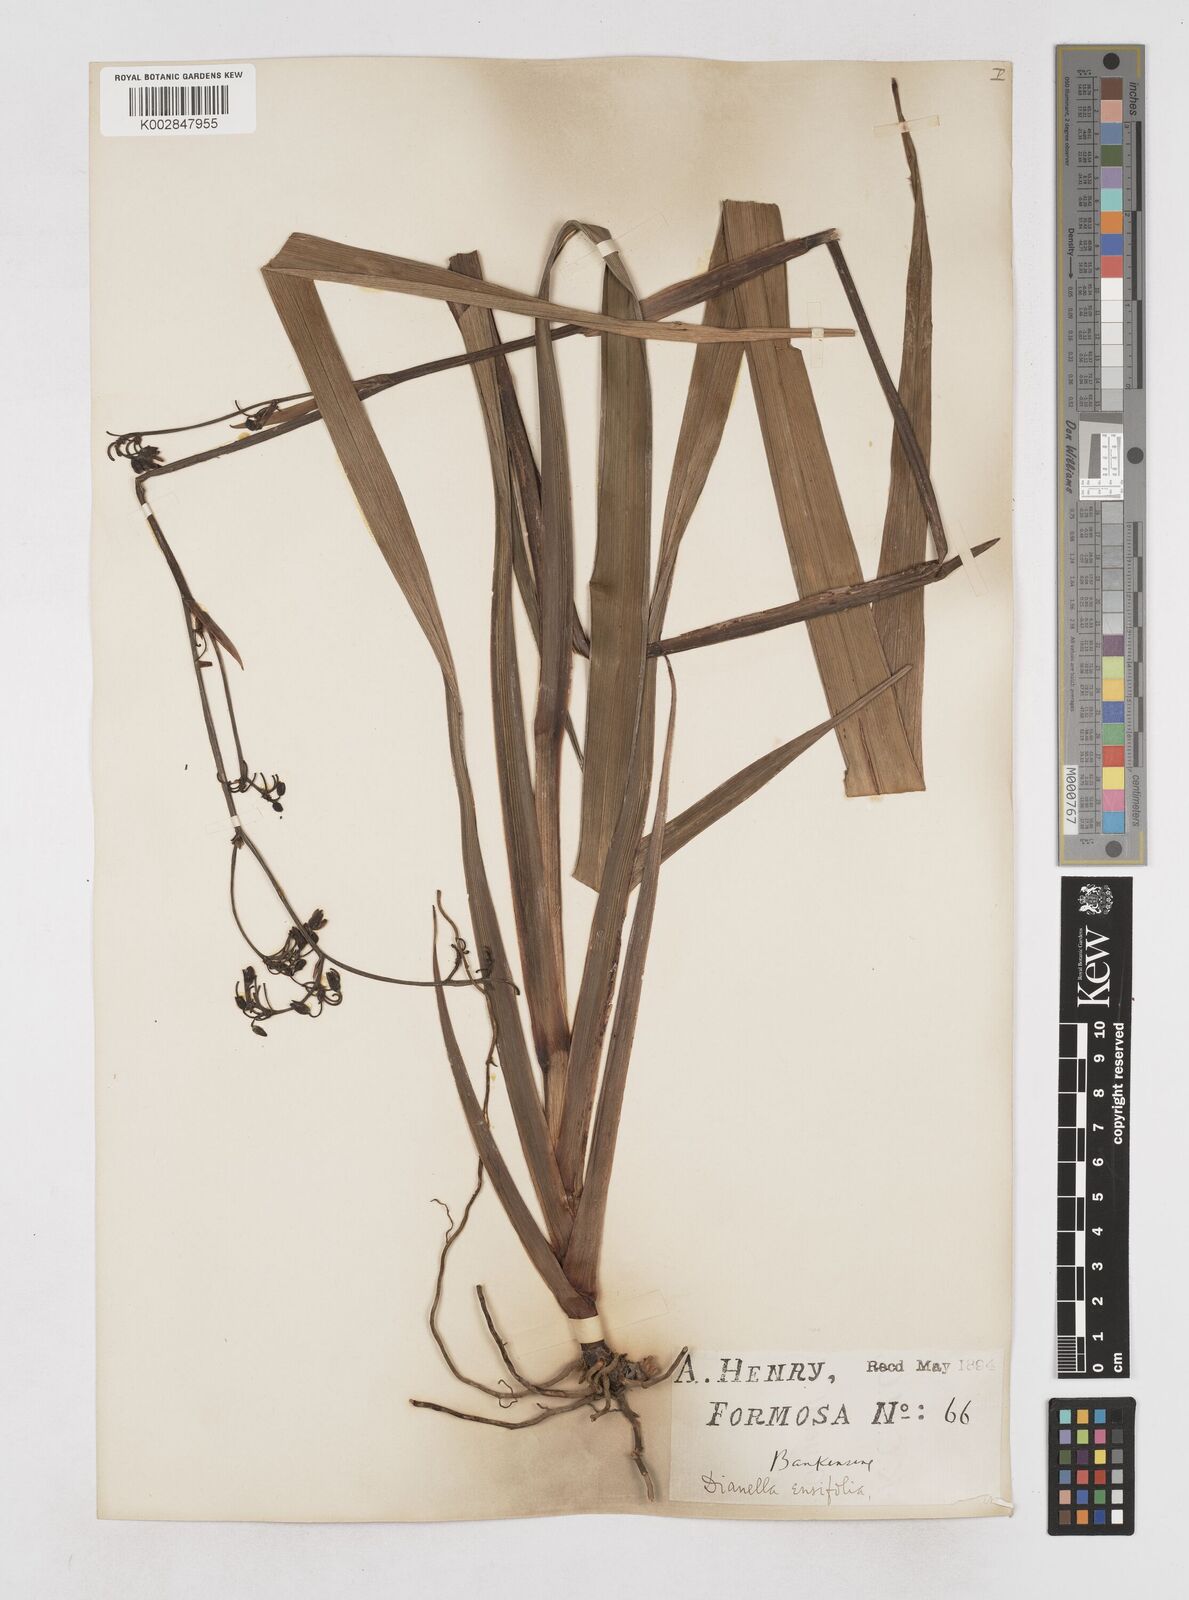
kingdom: Plantae
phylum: Tracheophyta
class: Liliopsida
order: Asparagales
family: Asphodelaceae
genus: Dianella
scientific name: Dianella ensifolia
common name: New zealand lilyplant
